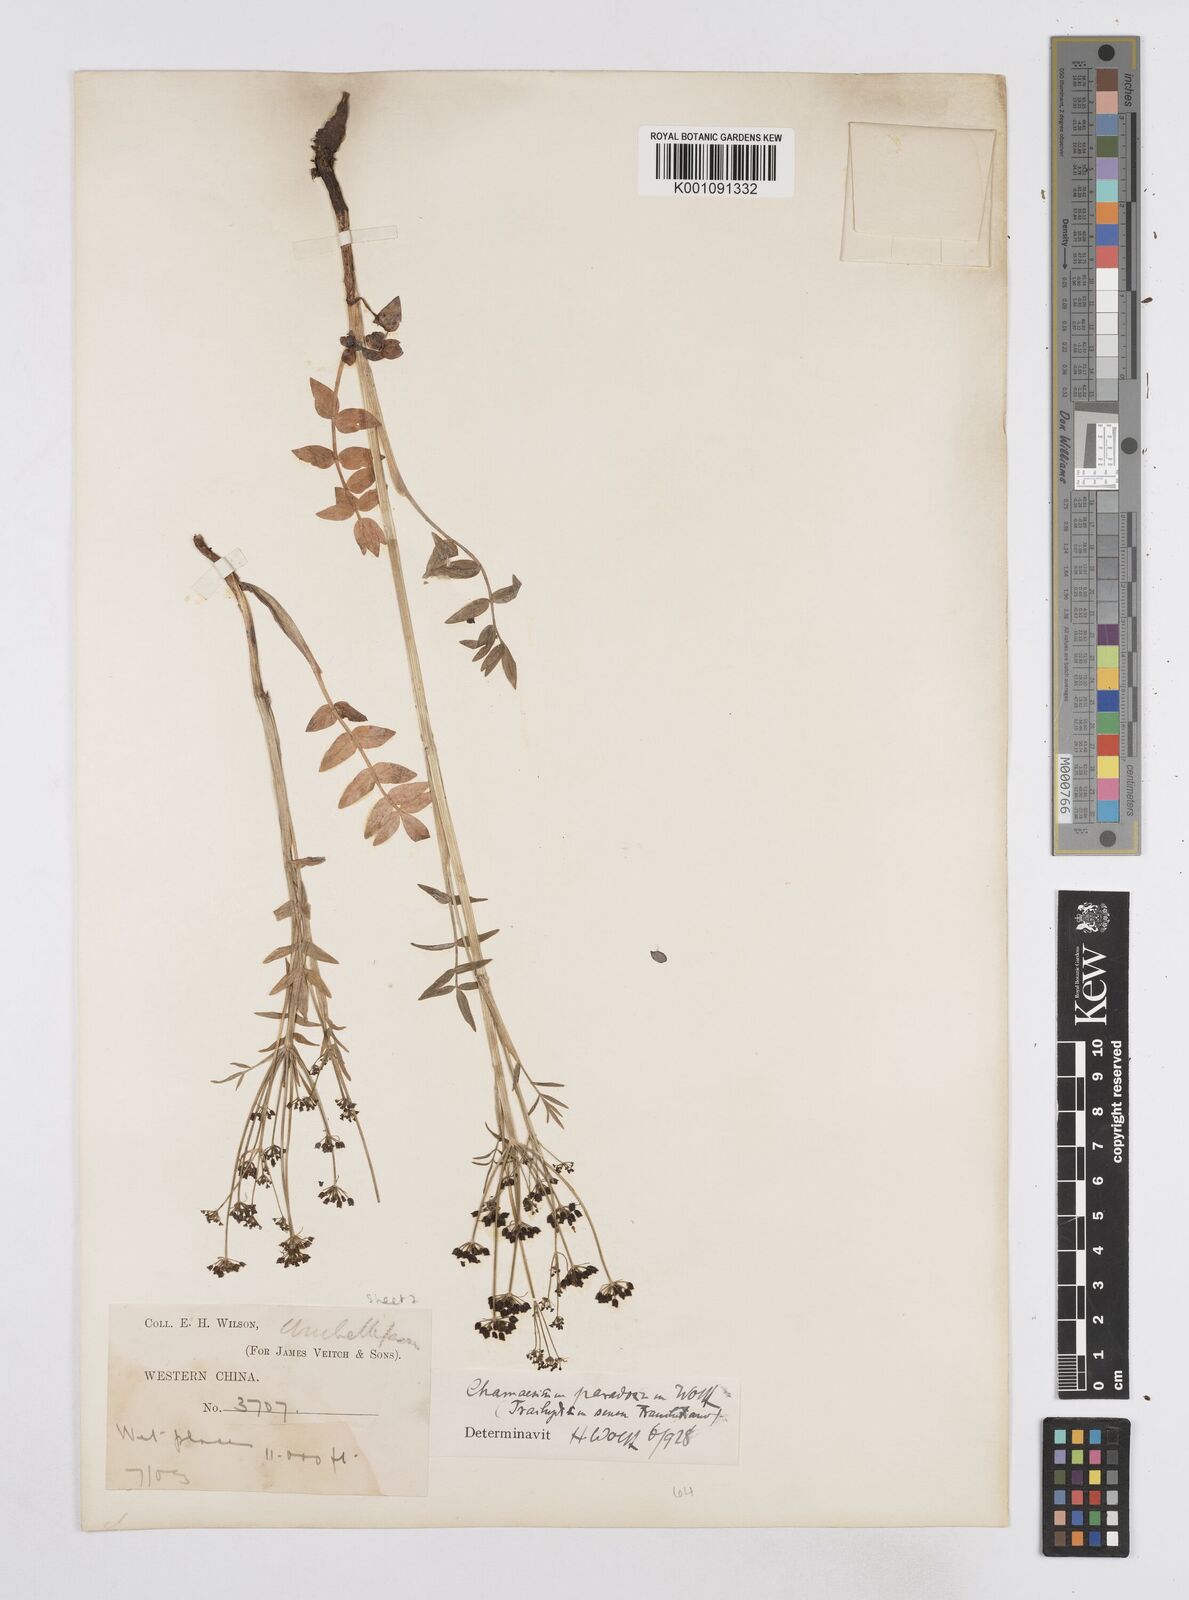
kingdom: Plantae
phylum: Tracheophyta
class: Magnoliopsida
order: Apiales
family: Apiaceae
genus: Chamaesium
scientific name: Chamaesium paradoxum
